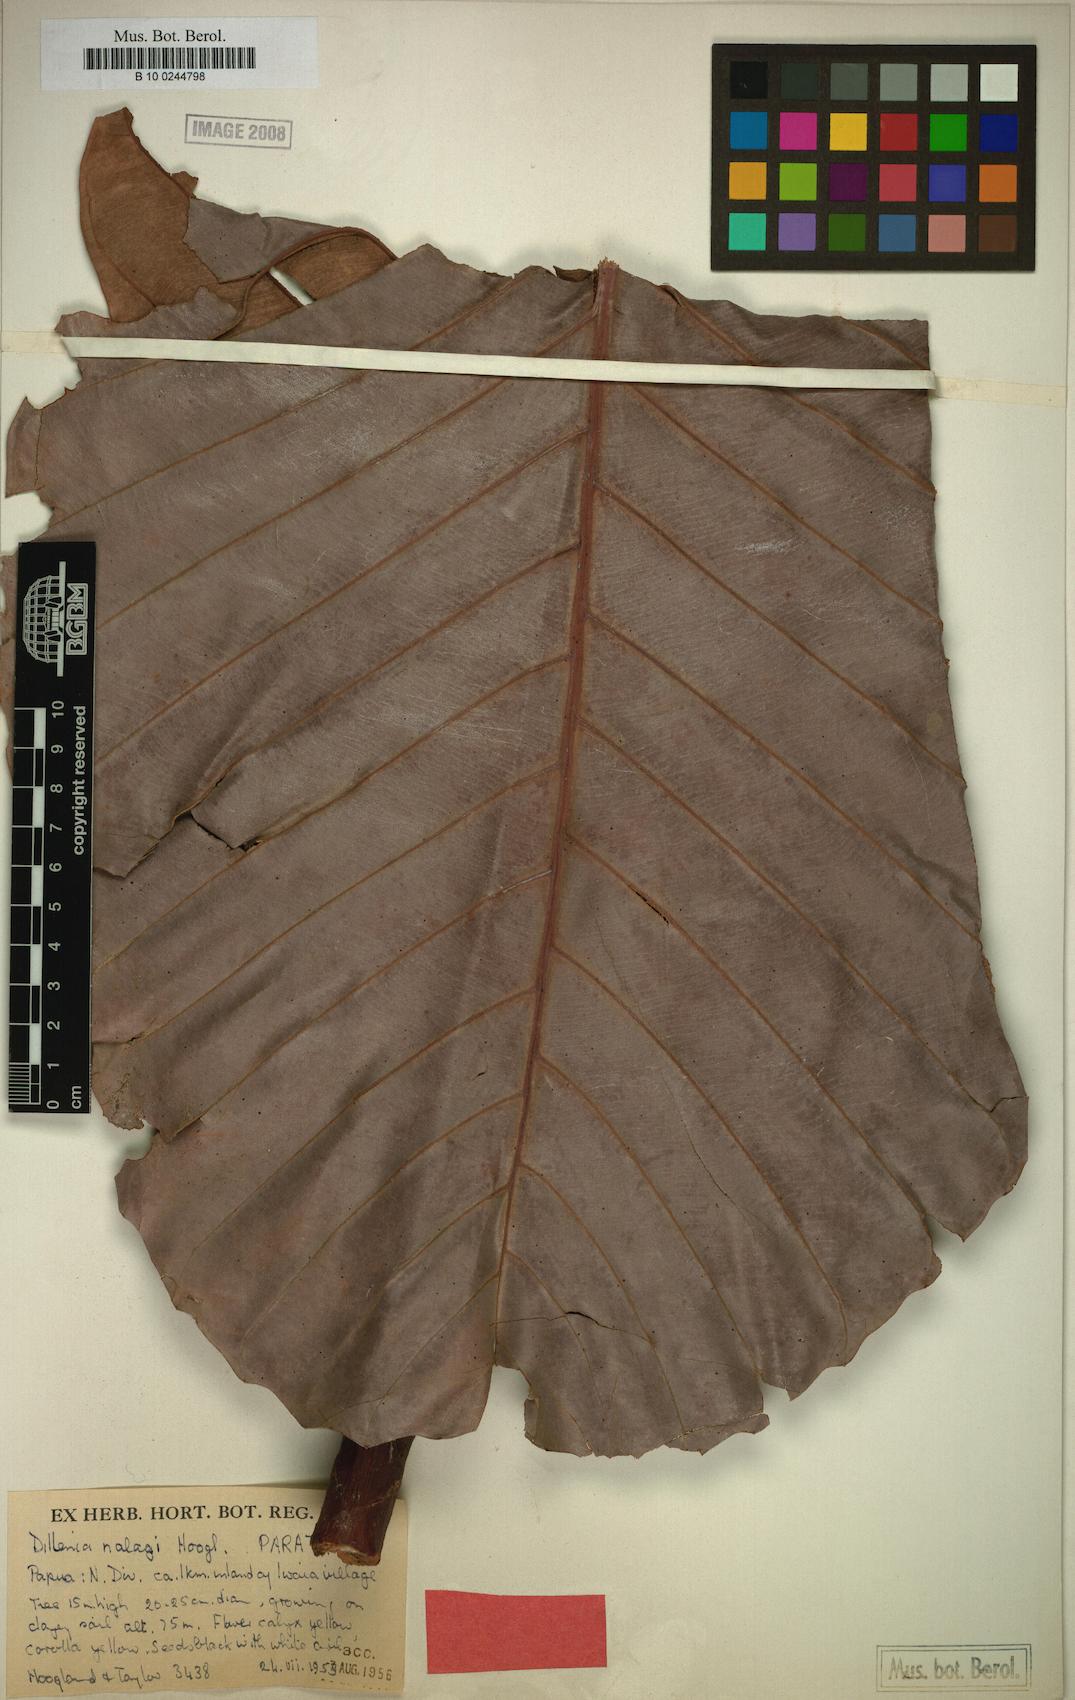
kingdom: Plantae
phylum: Tracheophyta
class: Magnoliopsida
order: Dilleniales
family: Dilleniaceae
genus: Dillenia
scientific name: Dillenia nalagi
